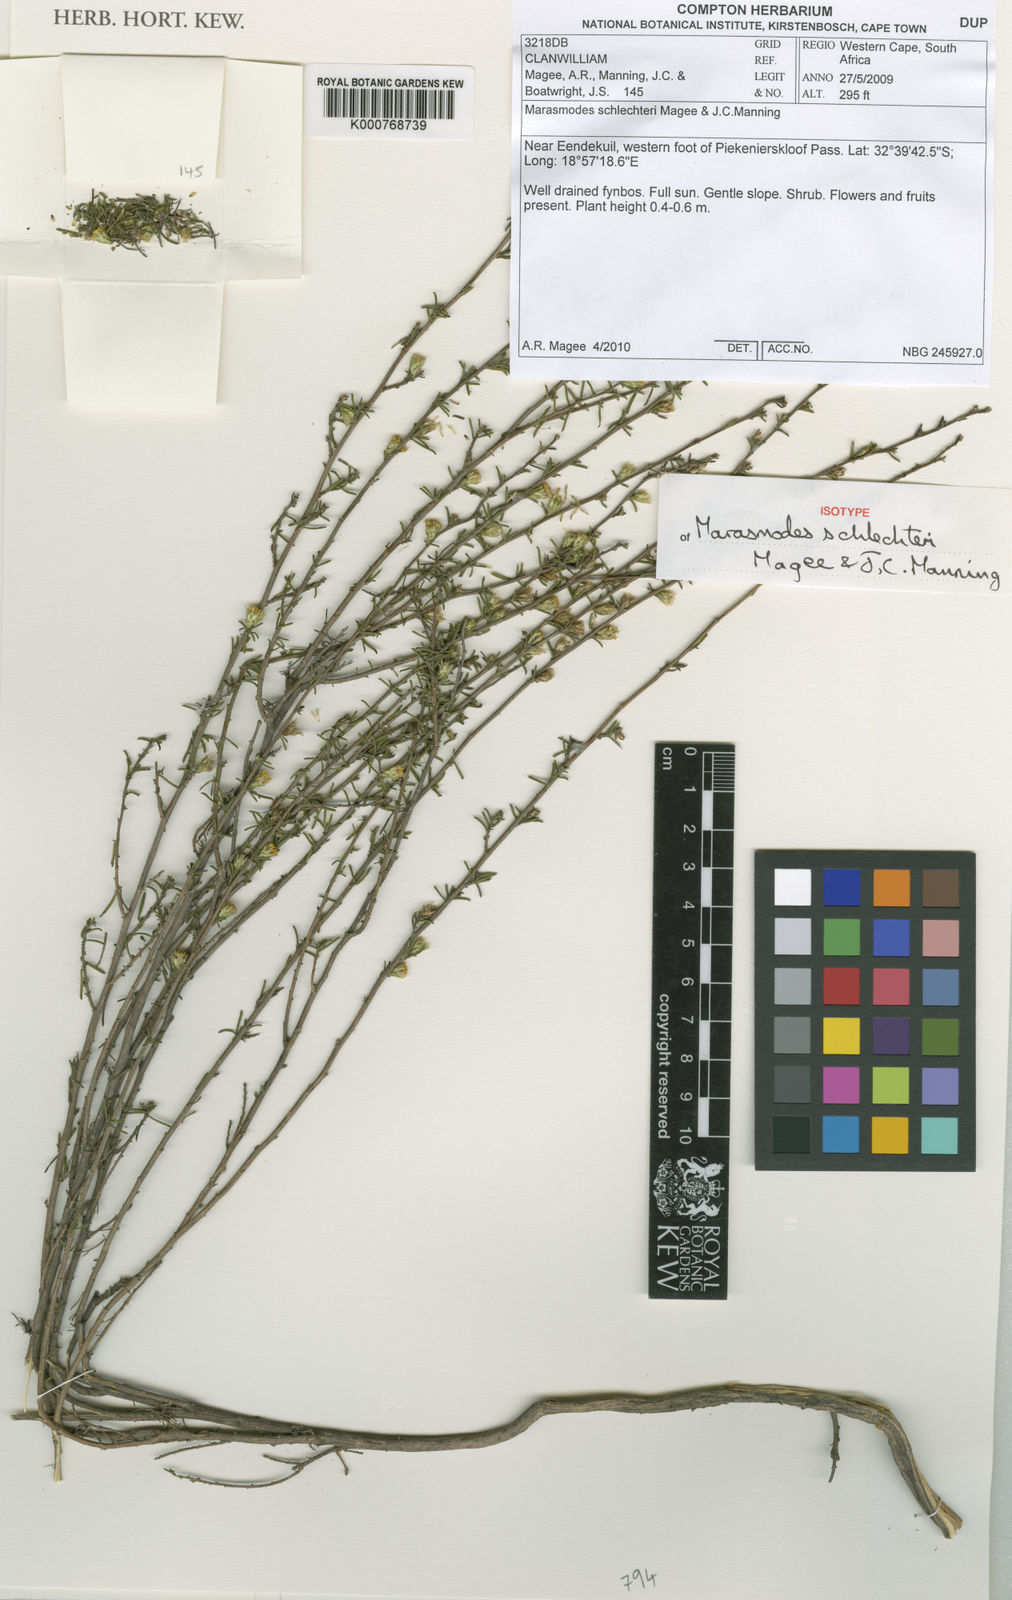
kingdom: Plantae
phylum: Tracheophyta
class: Magnoliopsida
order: Asterales
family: Asteraceae
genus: Marasmodes
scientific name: Marasmodes schlechteri
